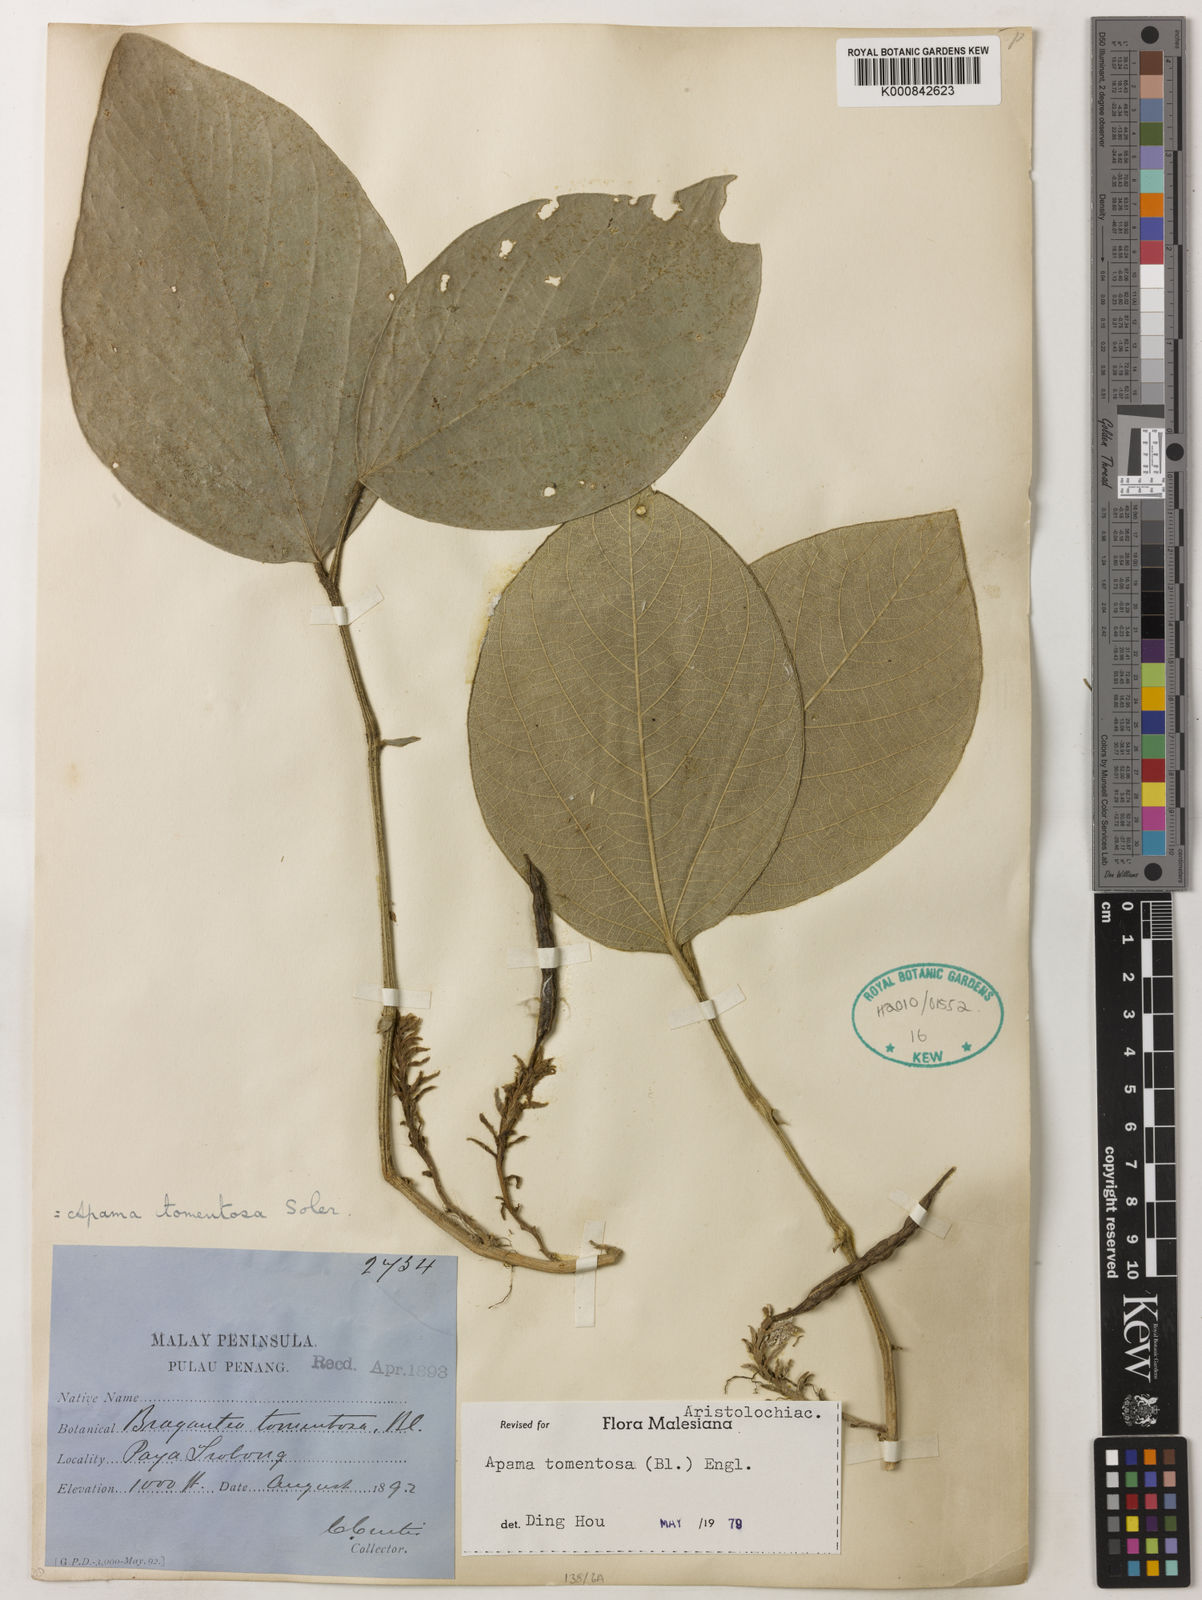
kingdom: Plantae
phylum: Tracheophyta
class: Magnoliopsida
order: Piperales
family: Aristolochiaceae
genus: Thottea
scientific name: Thottea tomentosa
